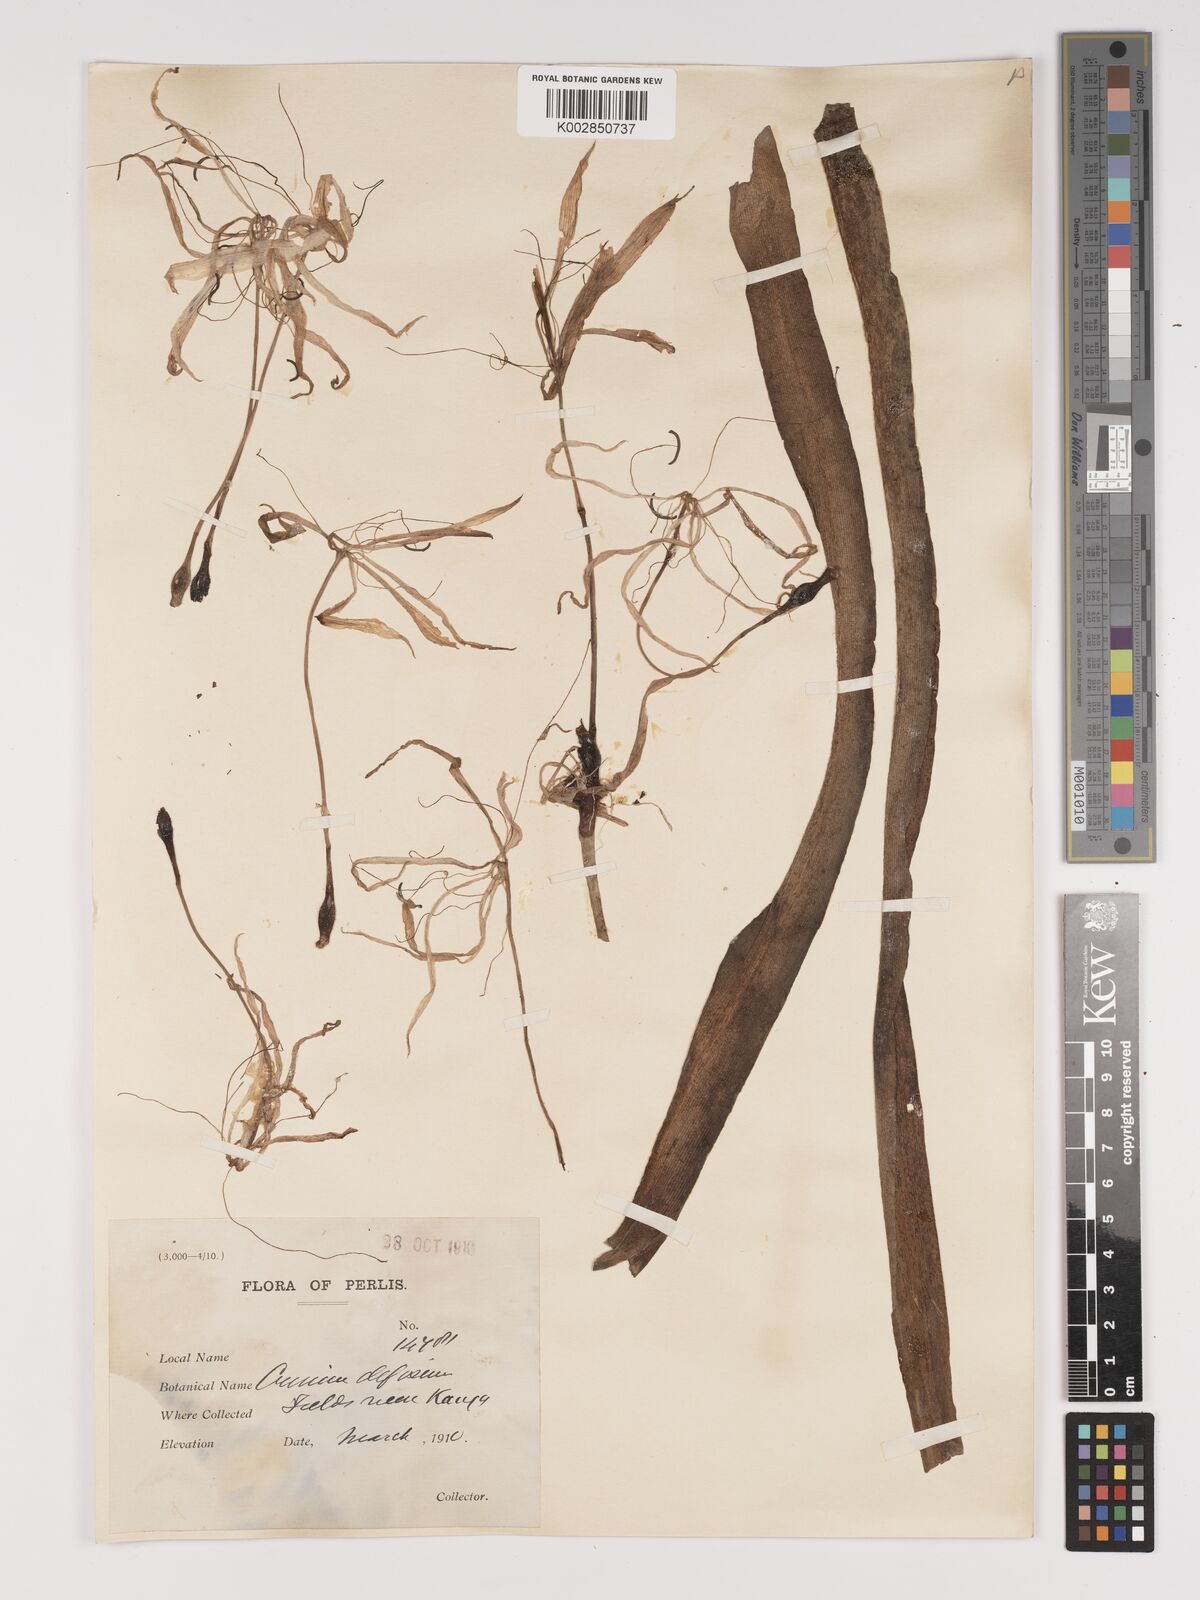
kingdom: Plantae
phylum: Tracheophyta
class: Liliopsida
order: Asparagales
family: Amaryllidaceae
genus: Crinum
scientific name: Crinum asiaticum
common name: Poisonbulb
